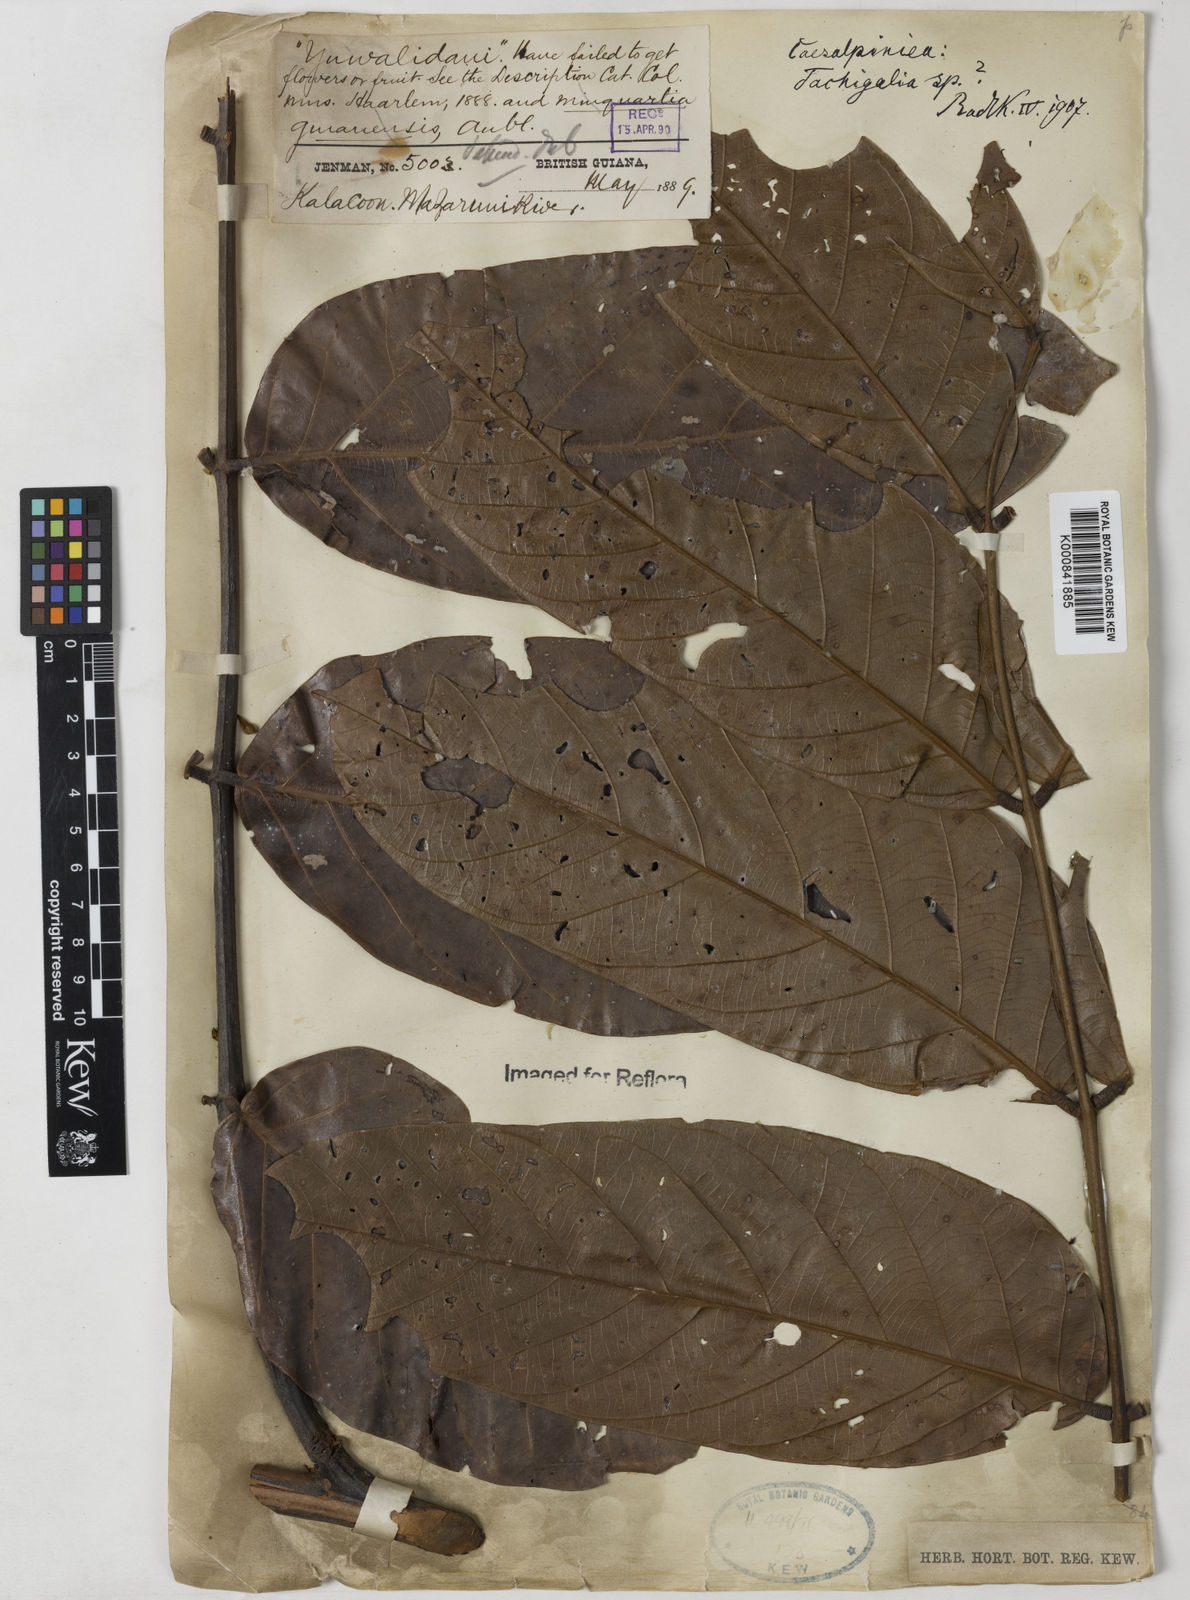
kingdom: Plantae
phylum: Tracheophyta
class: Magnoliopsida
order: Fabales
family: Fabaceae
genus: Tachigali
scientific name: Tachigali
